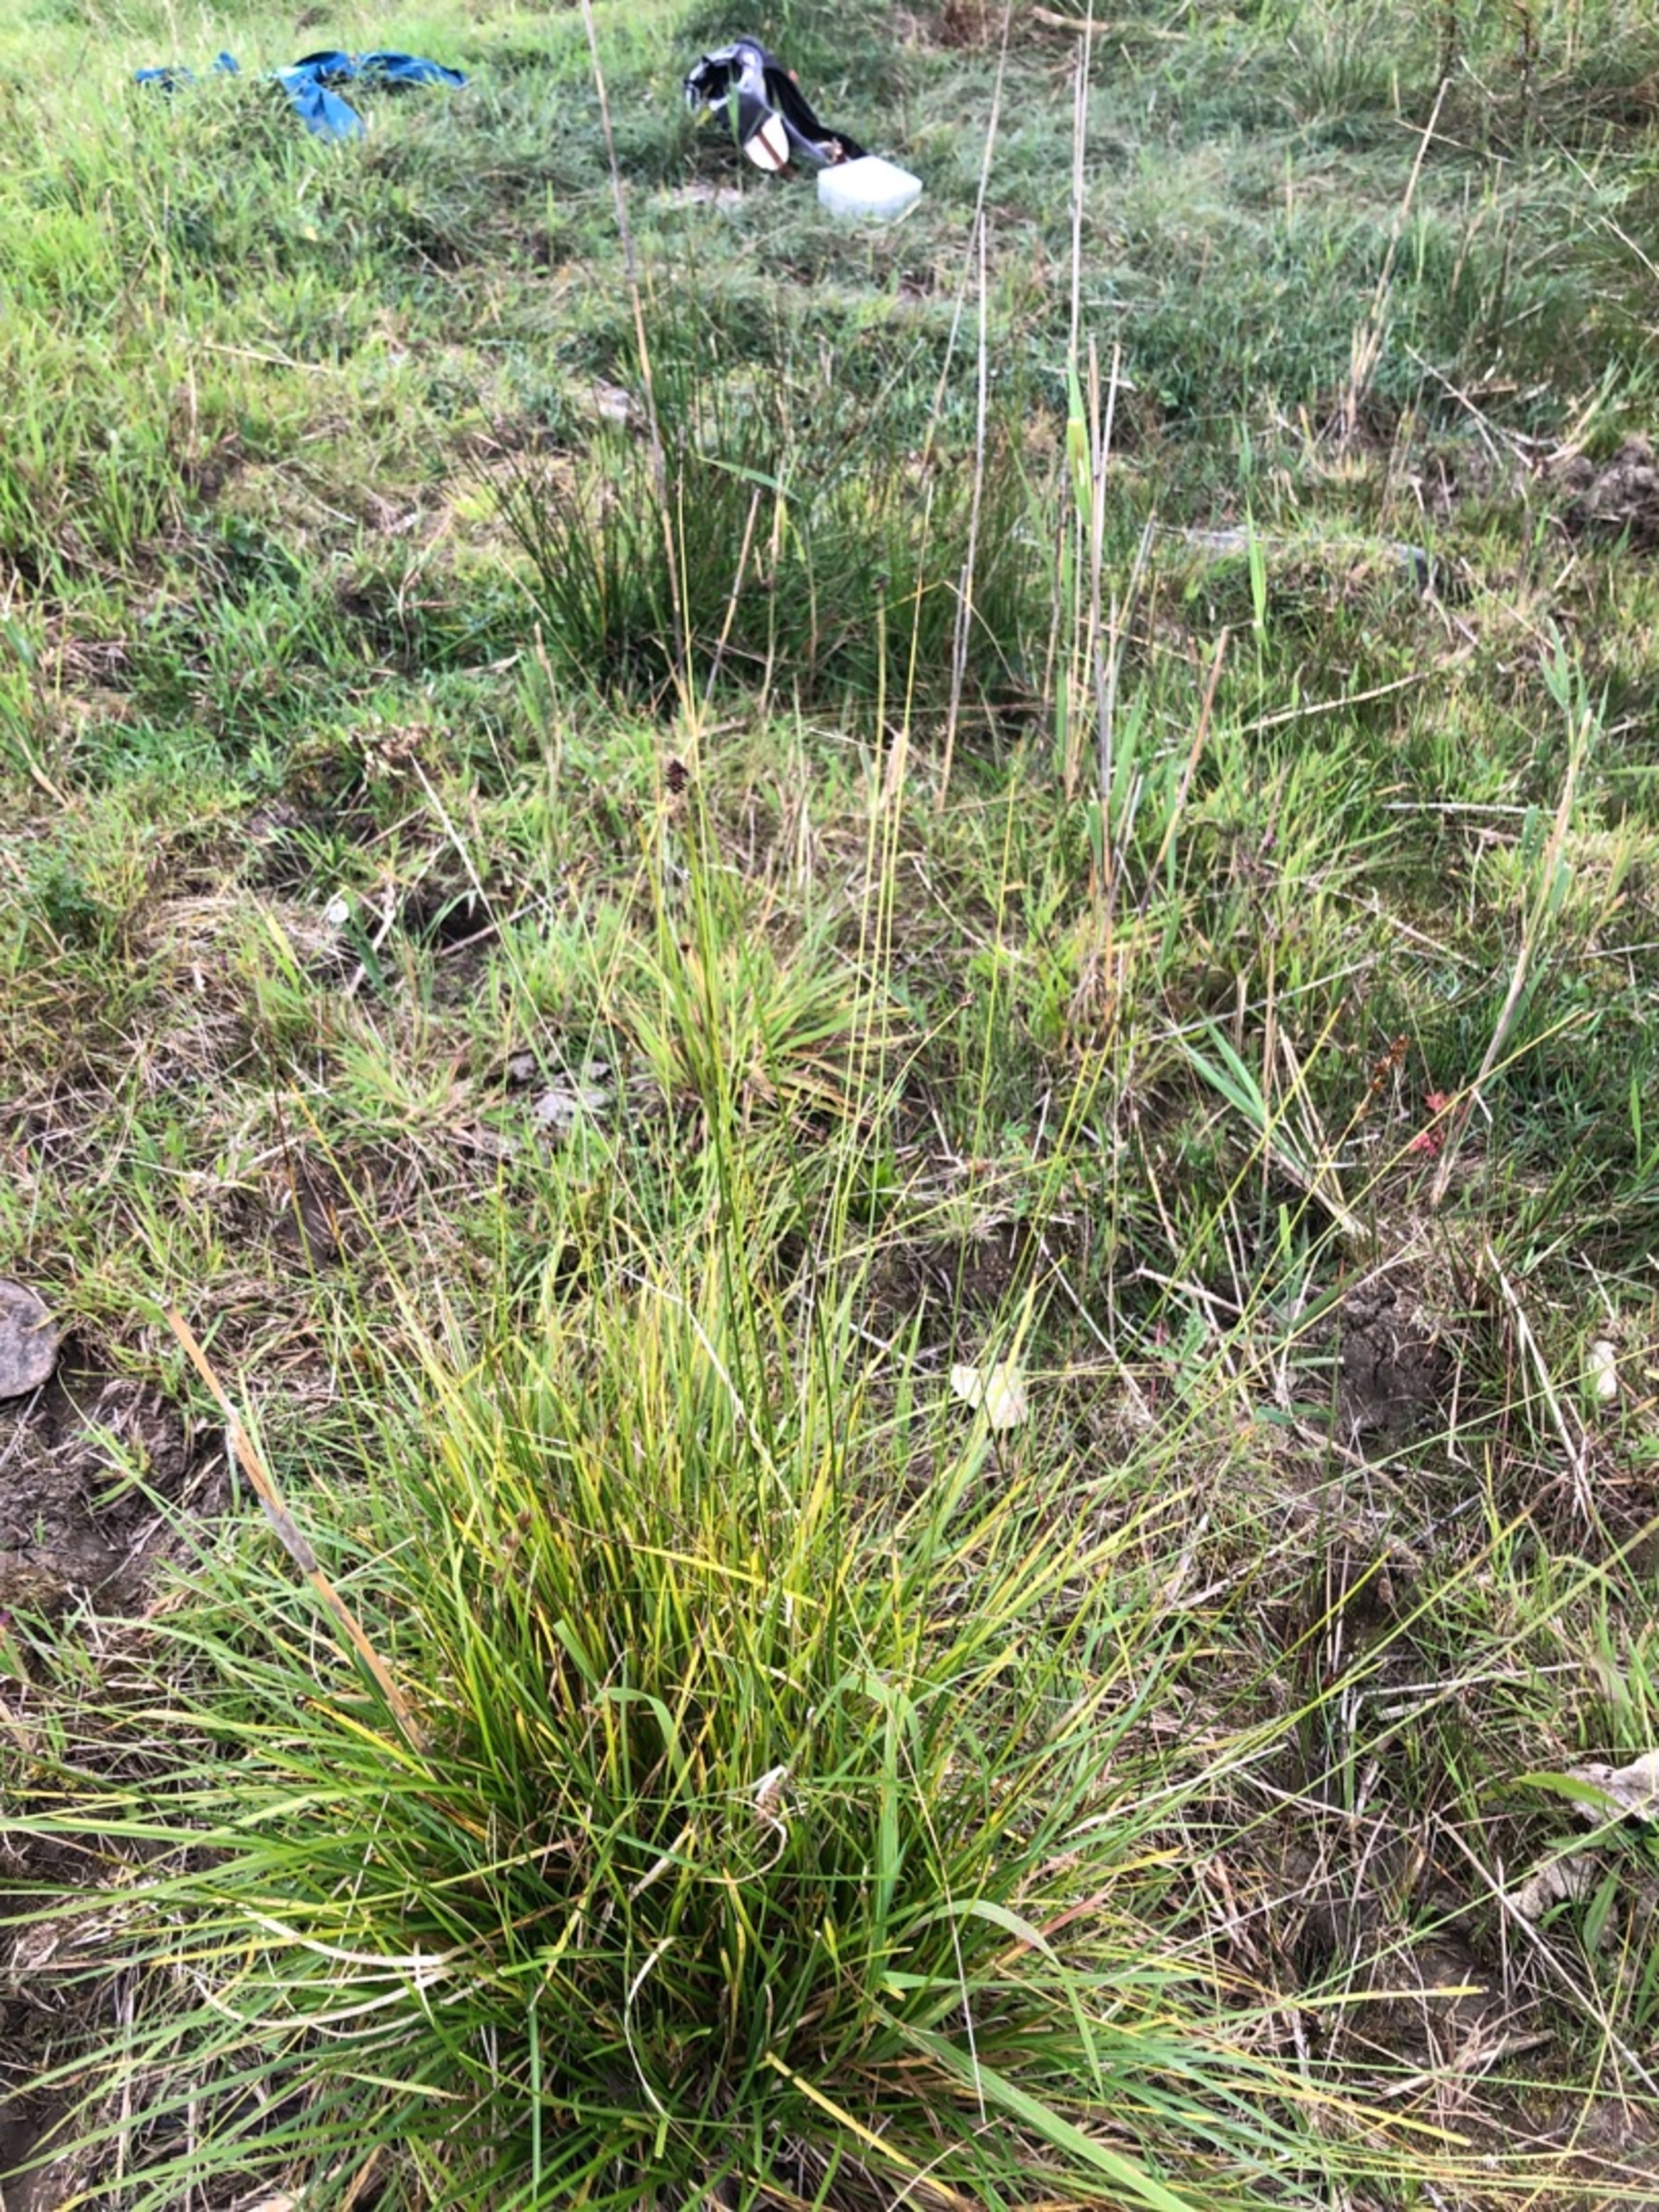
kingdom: Plantae
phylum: Tracheophyta
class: Liliopsida
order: Poales
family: Cyperaceae
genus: Carex
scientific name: Carex divulsa
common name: Mellembrudt star
